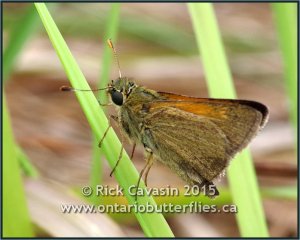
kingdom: Animalia
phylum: Arthropoda
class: Insecta
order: Lepidoptera
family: Hesperiidae
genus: Polites
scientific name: Polites themistocles
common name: Tawny-edged Skipper
